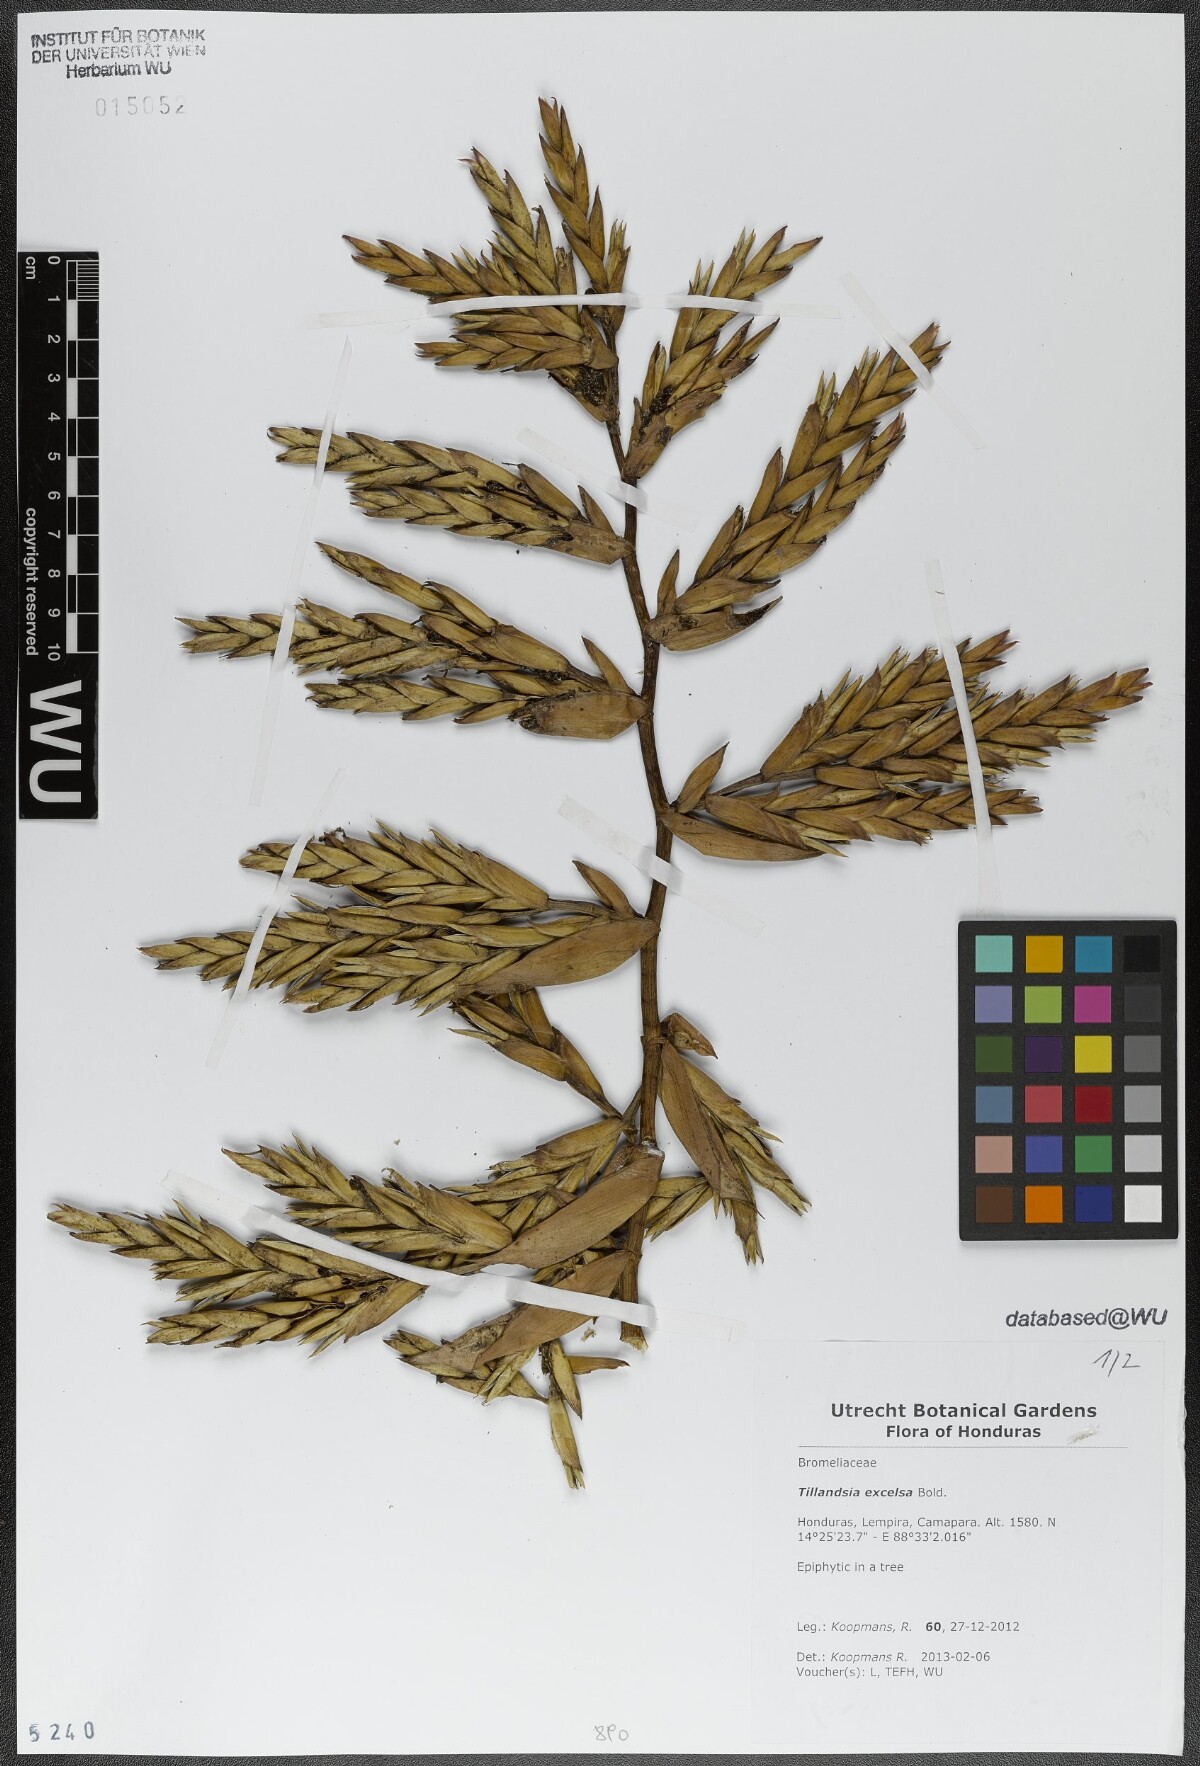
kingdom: Plantae
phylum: Tracheophyta
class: Liliopsida
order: Poales
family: Bromeliaceae
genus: Tillandsia
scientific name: Tillandsia excelsa
